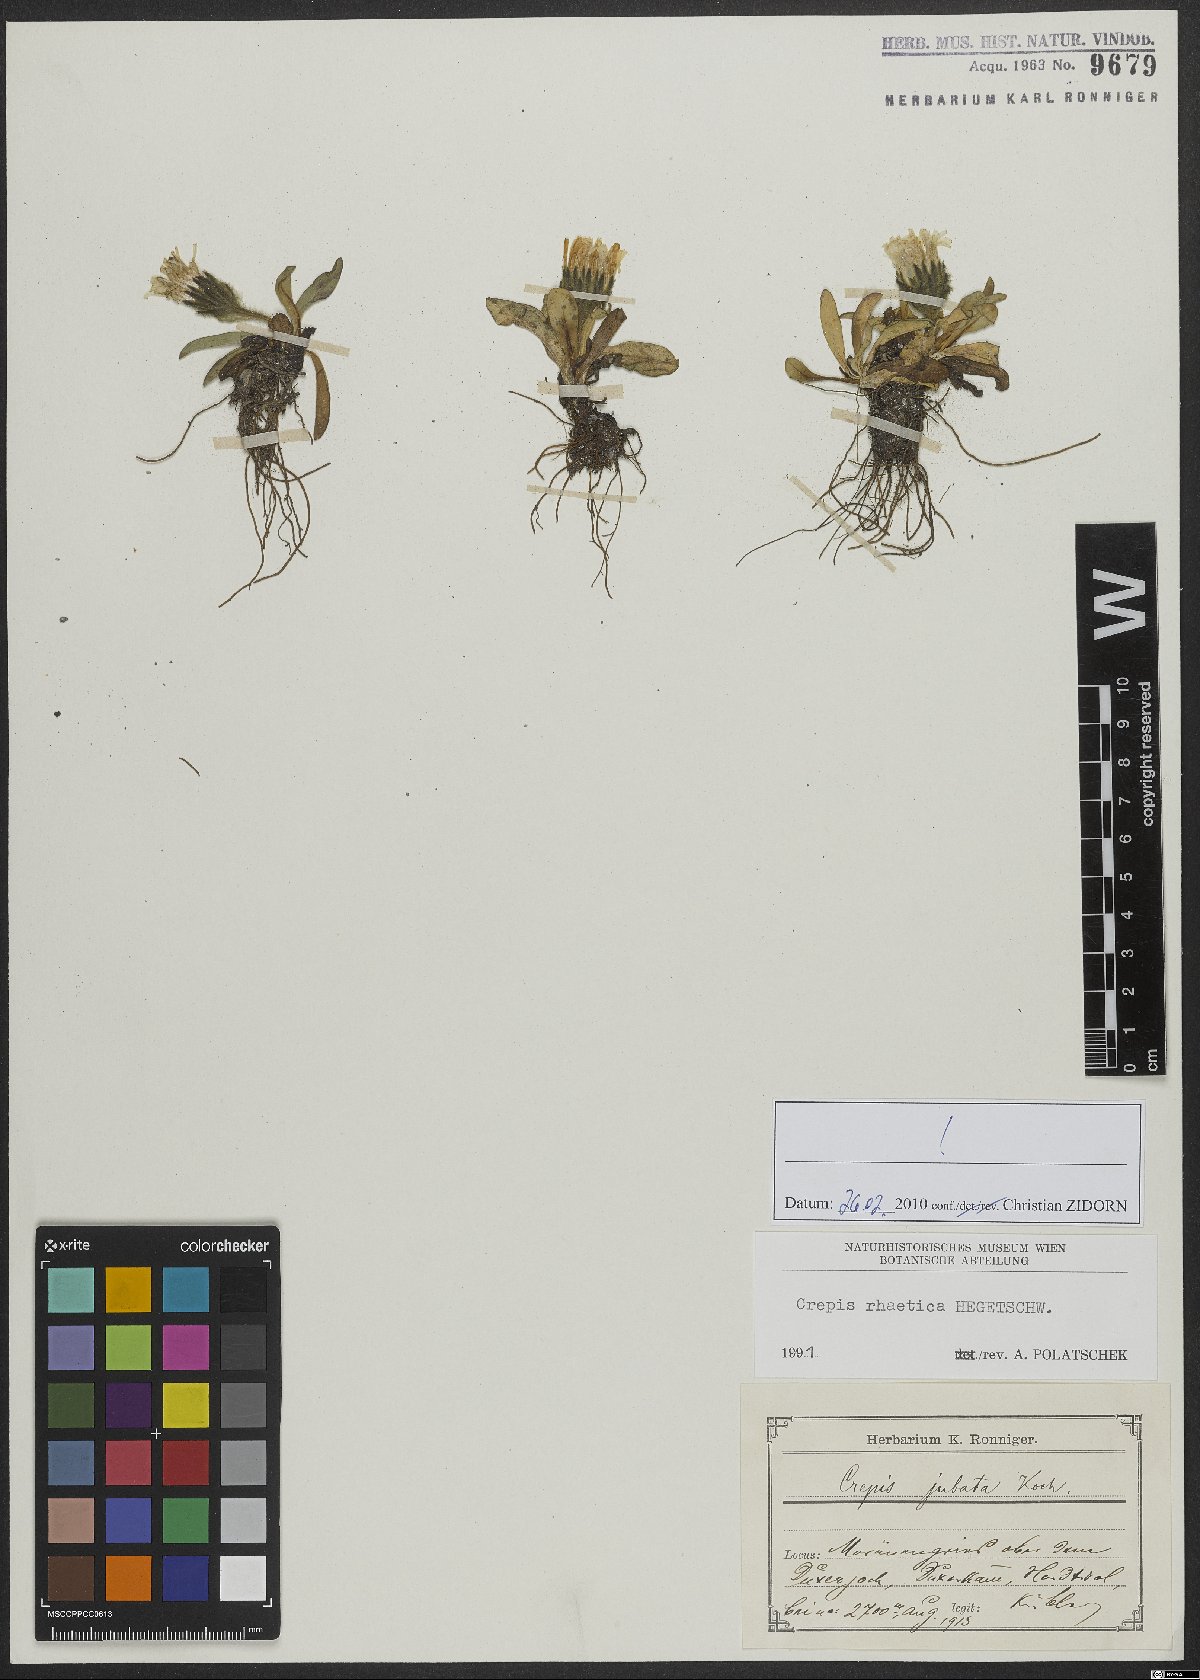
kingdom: Plantae
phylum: Tracheophyta
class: Magnoliopsida
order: Asterales
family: Asteraceae
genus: Crepis
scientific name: Crepis rhaetica
